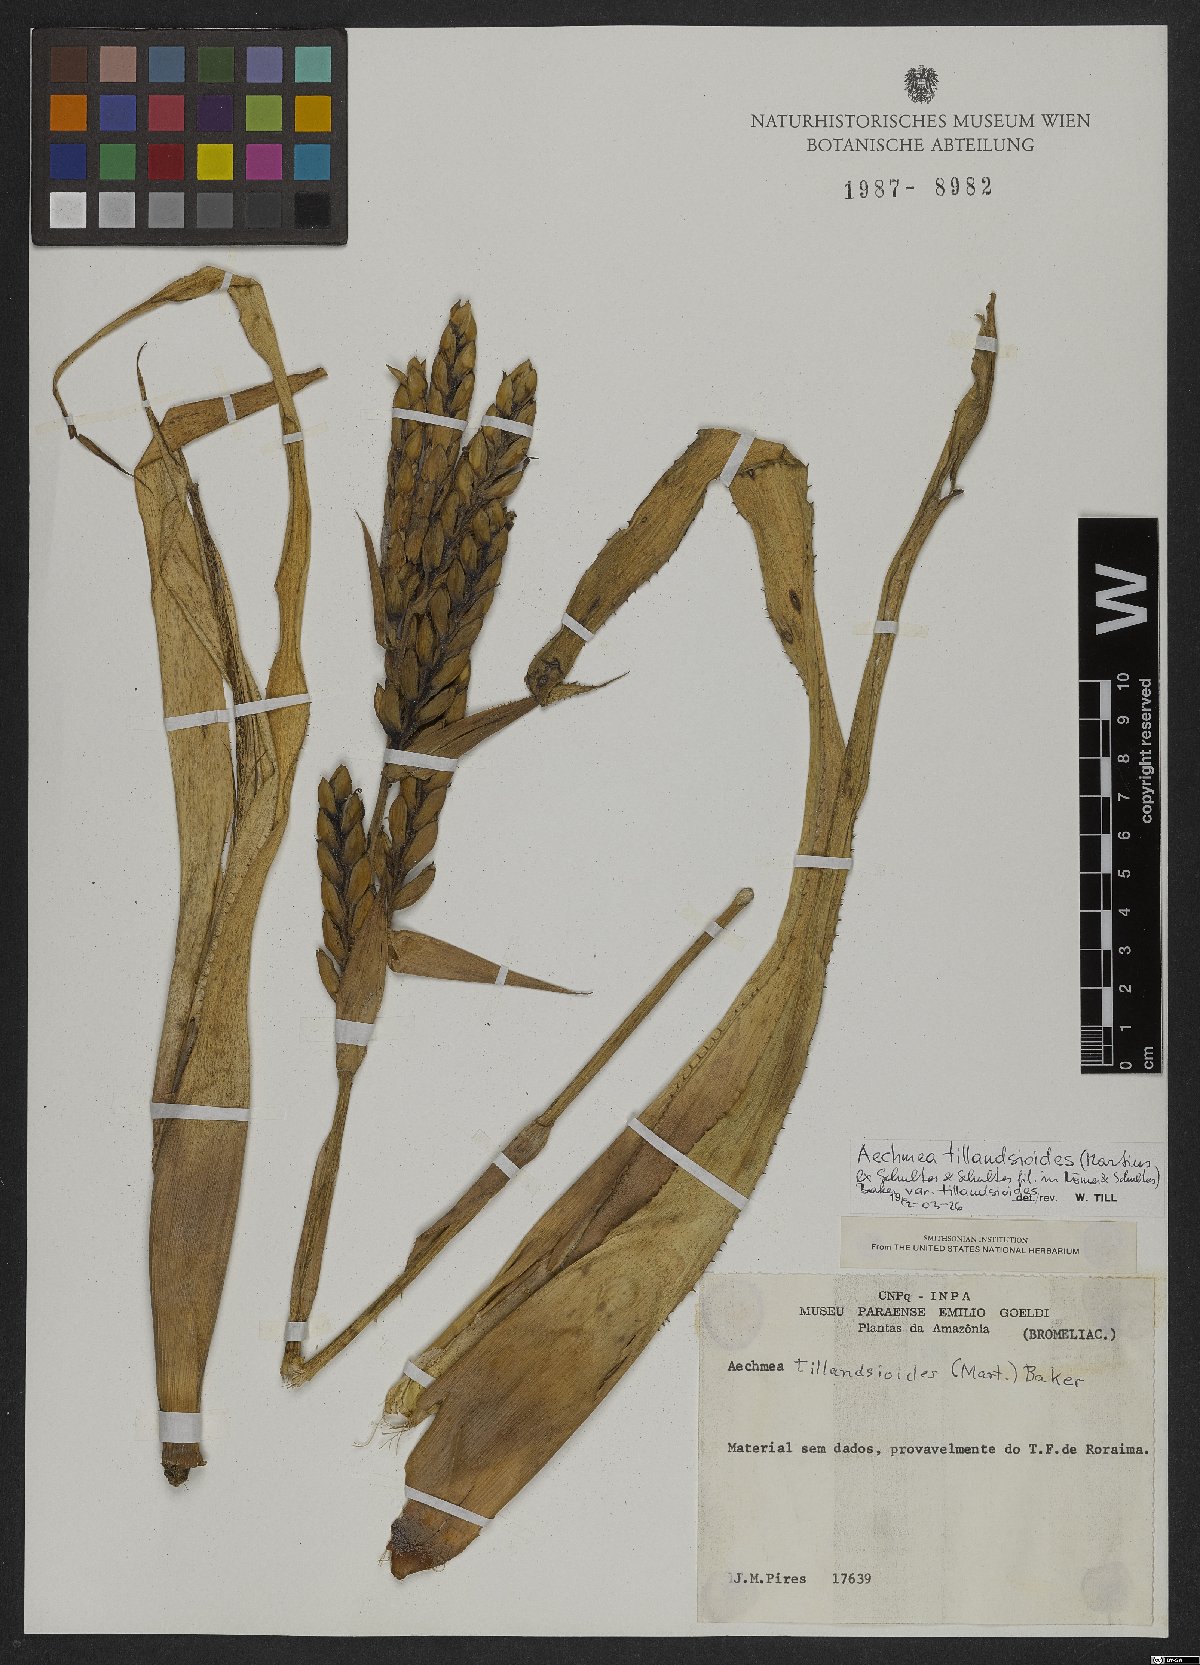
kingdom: Plantae
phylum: Tracheophyta
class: Liliopsida
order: Poales
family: Bromeliaceae
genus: Aechmea
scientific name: Aechmea tillandsioides
